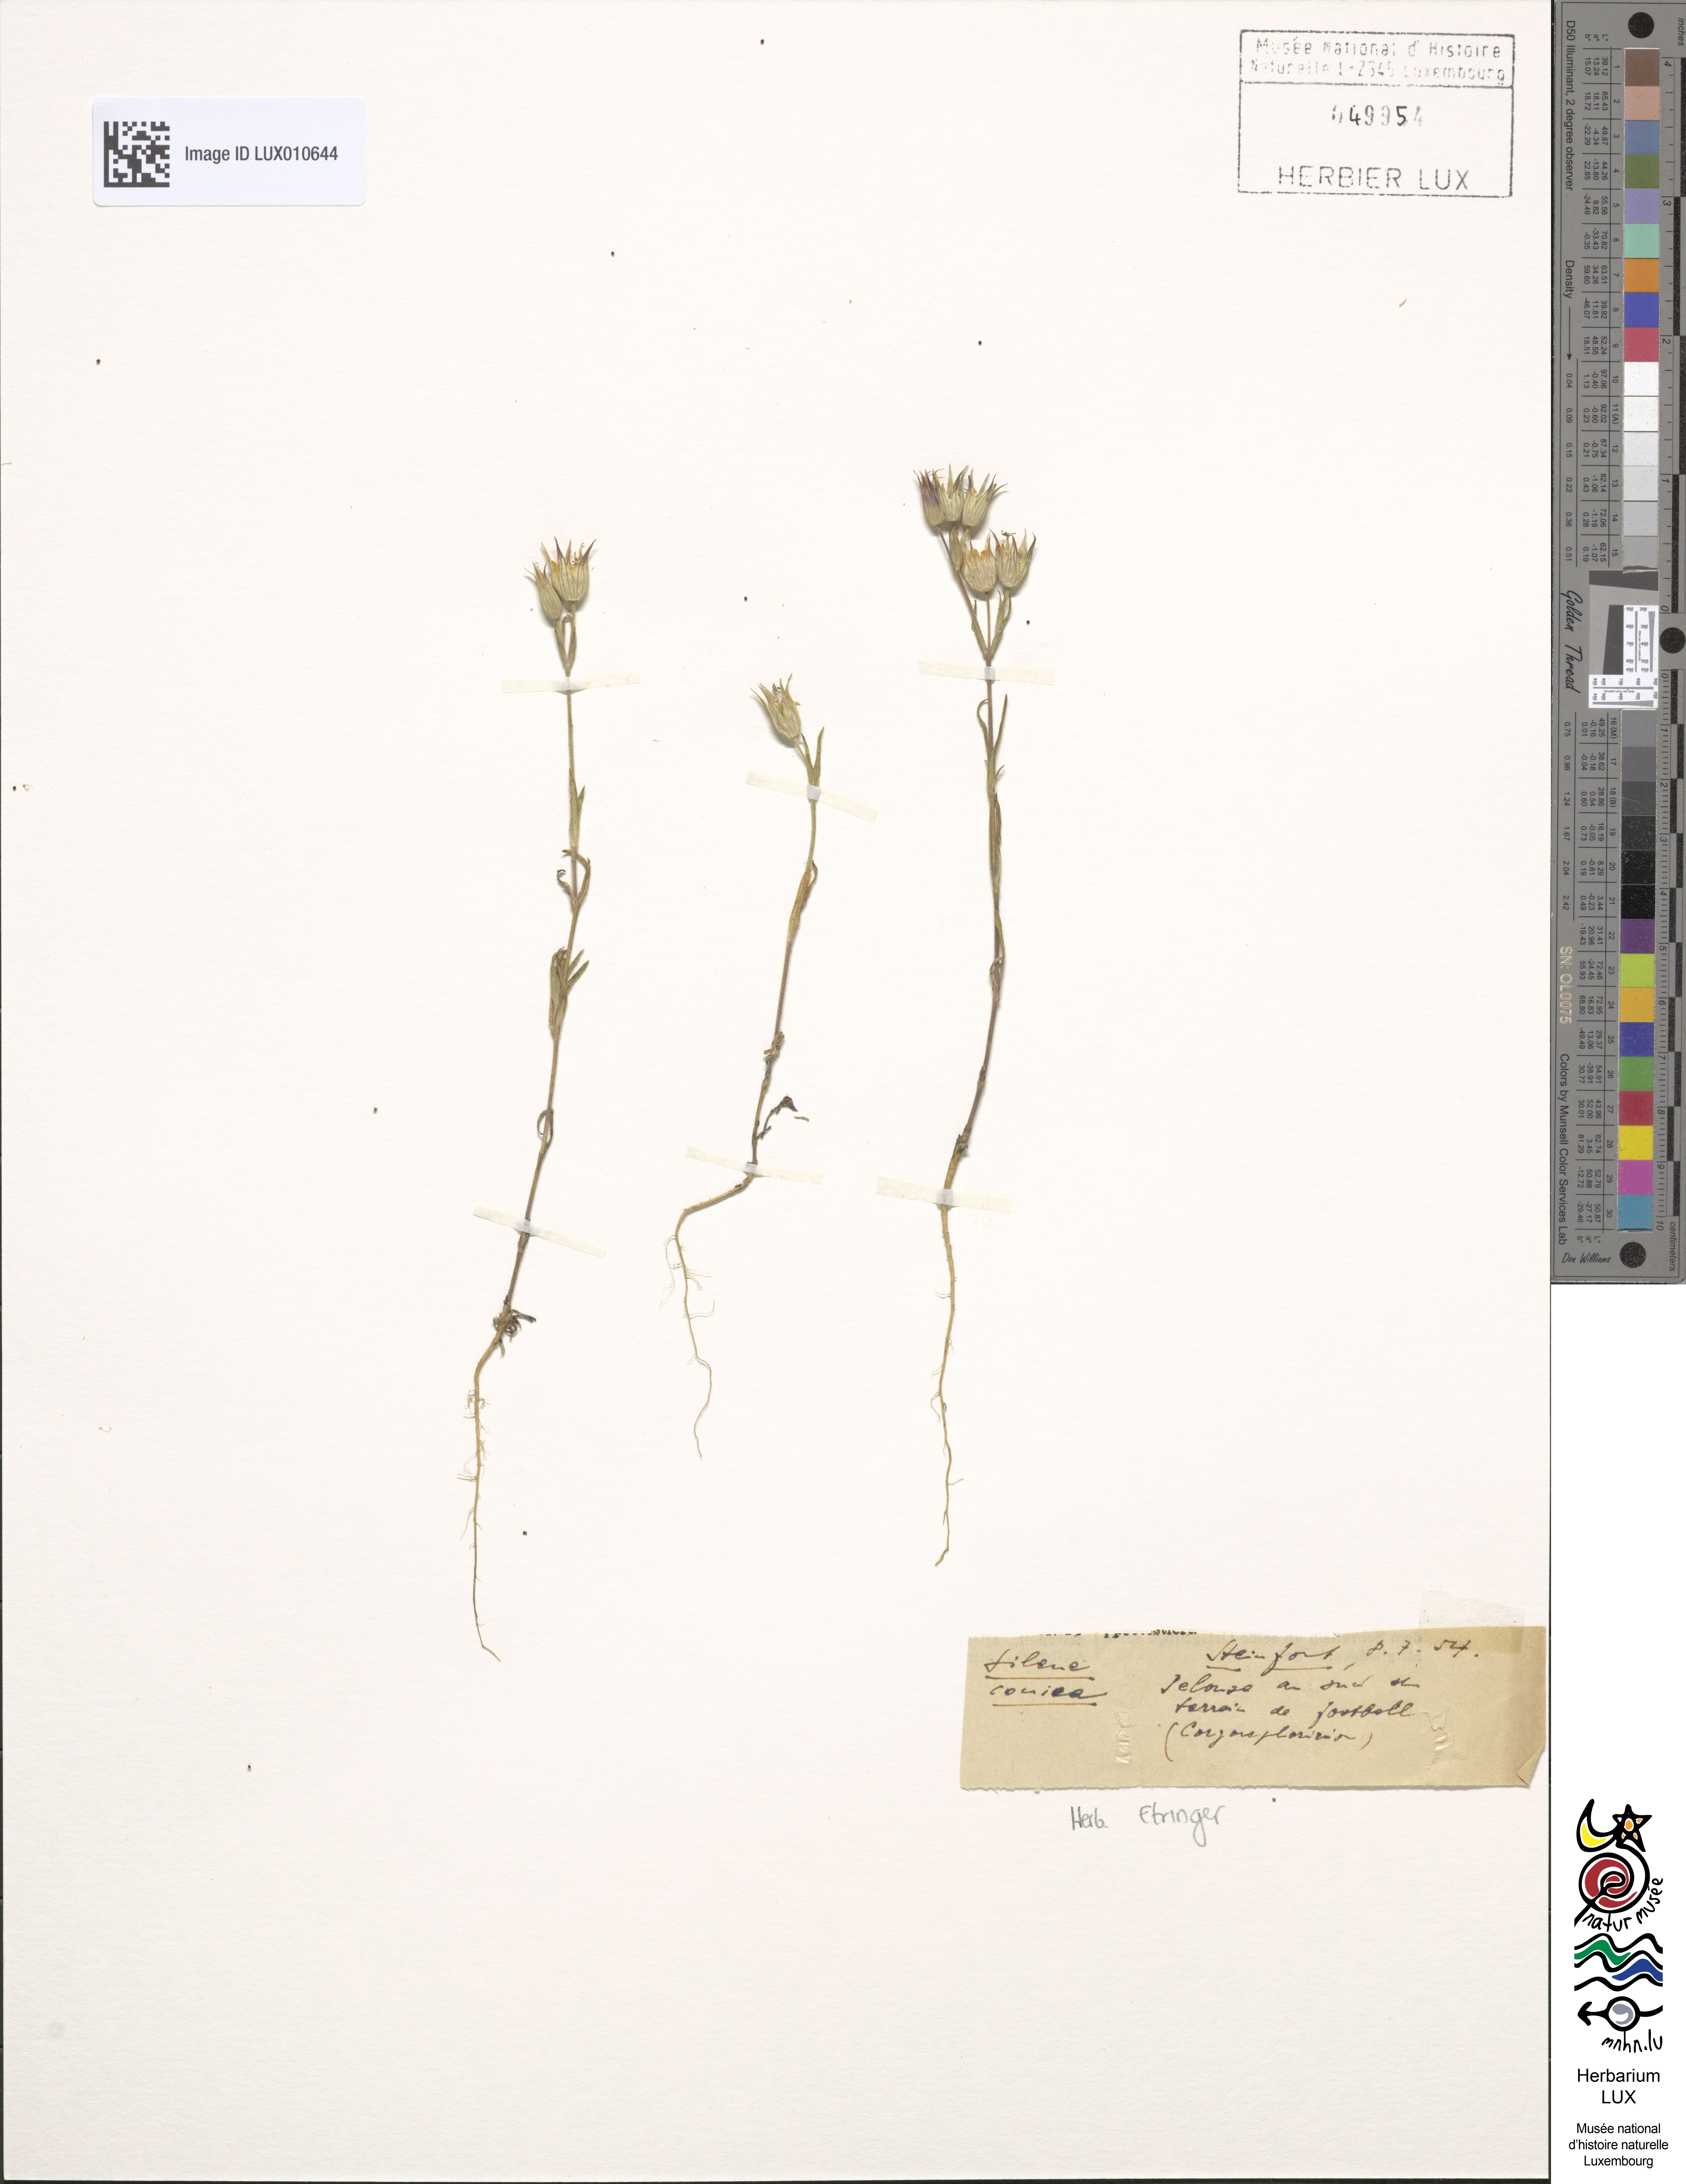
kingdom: Plantae
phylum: Tracheophyta
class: Magnoliopsida
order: Caryophyllales
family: Caryophyllaceae
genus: Silene
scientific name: Silene conica
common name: Sand catchfly
